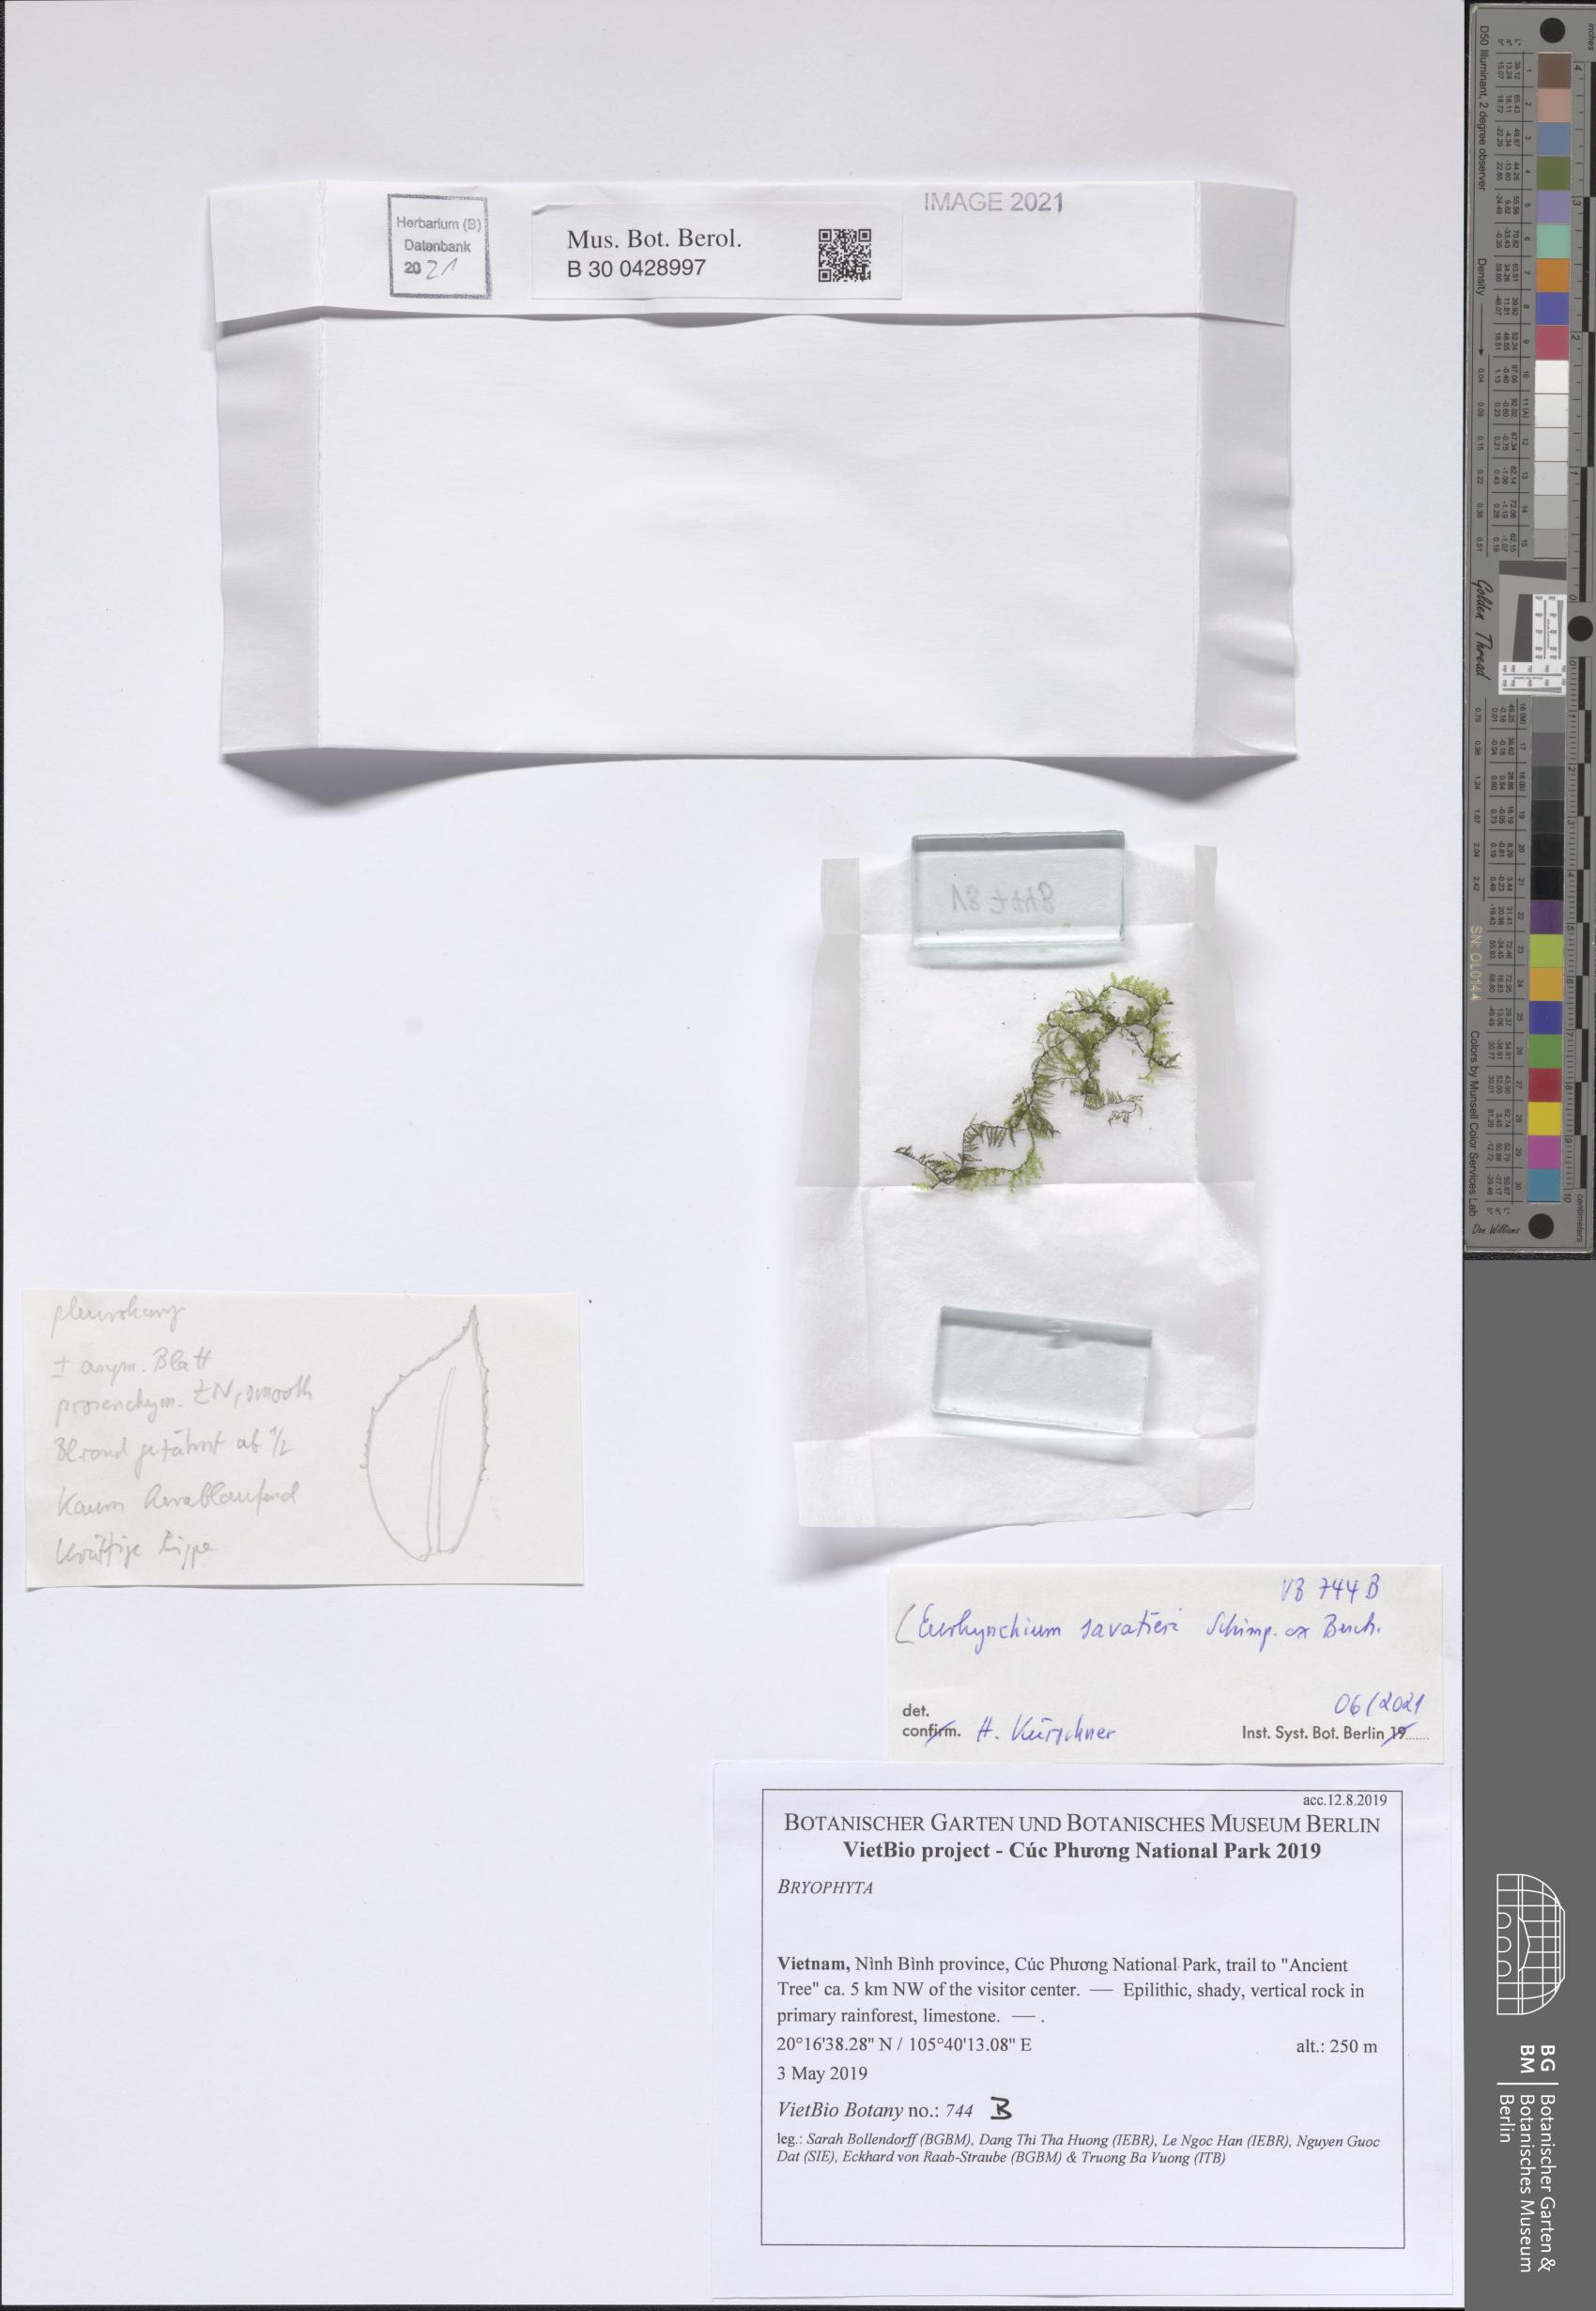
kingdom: Plantae
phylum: Bryophyta
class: Bryopsida
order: Hypnales
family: Brachytheciaceae
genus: Oxyrrhynchium
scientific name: Oxyrrhynchium savatieri
